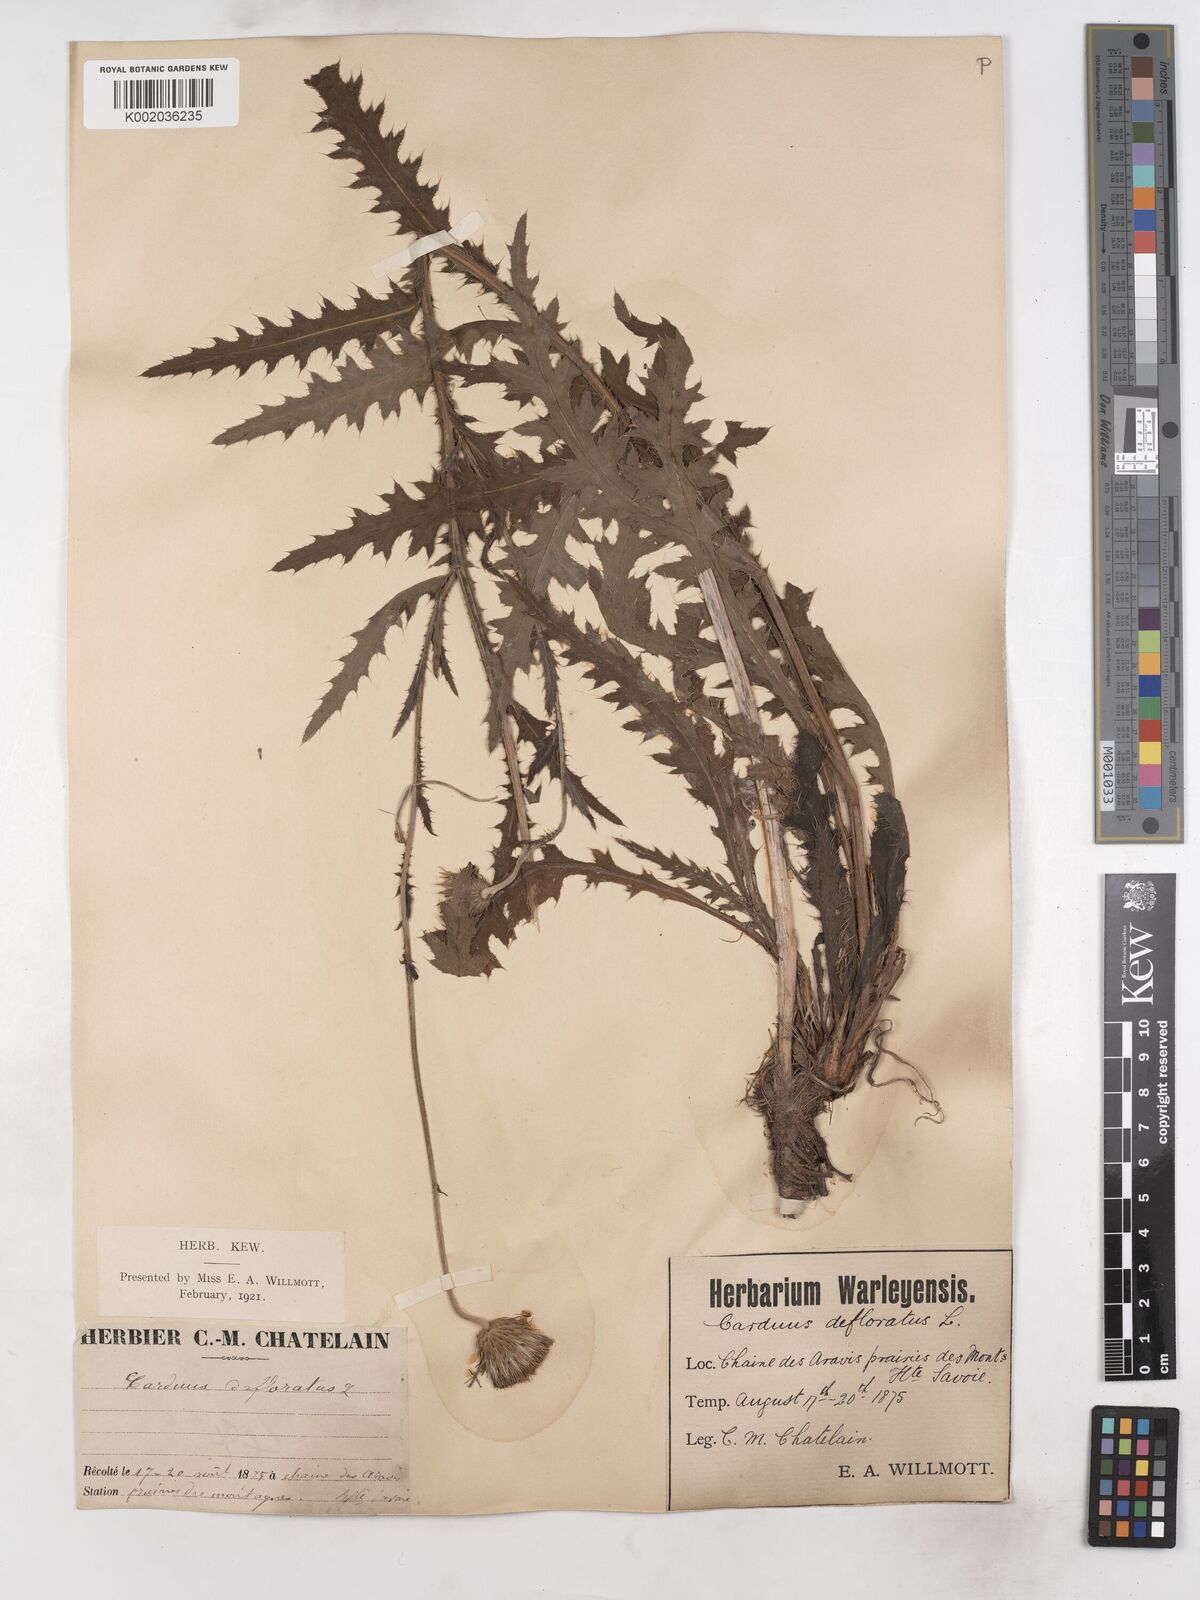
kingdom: Plantae
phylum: Tracheophyta
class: Magnoliopsida
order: Asterales
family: Asteraceae
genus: Carduus
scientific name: Carduus defloratus
